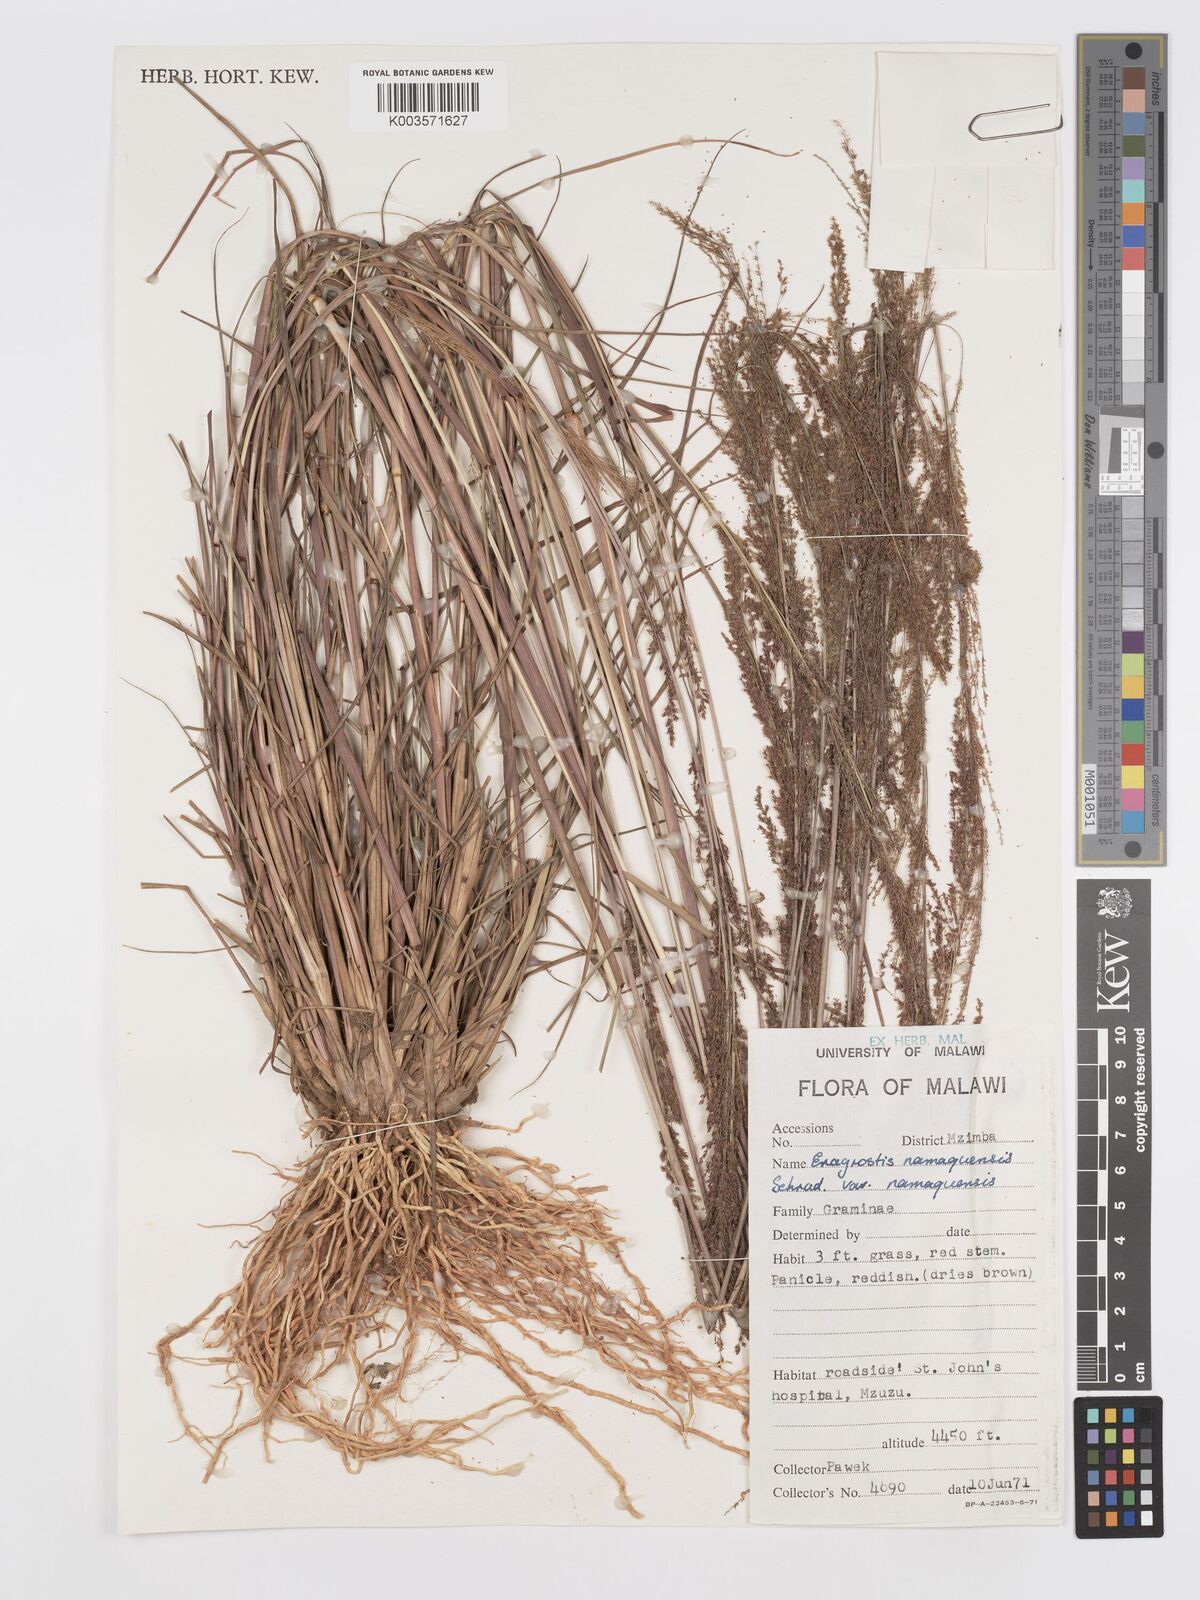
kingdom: Plantae
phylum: Tracheophyta
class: Liliopsida
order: Poales
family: Poaceae
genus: Eragrostis
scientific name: Eragrostis japonica
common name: Pond lovegrass
